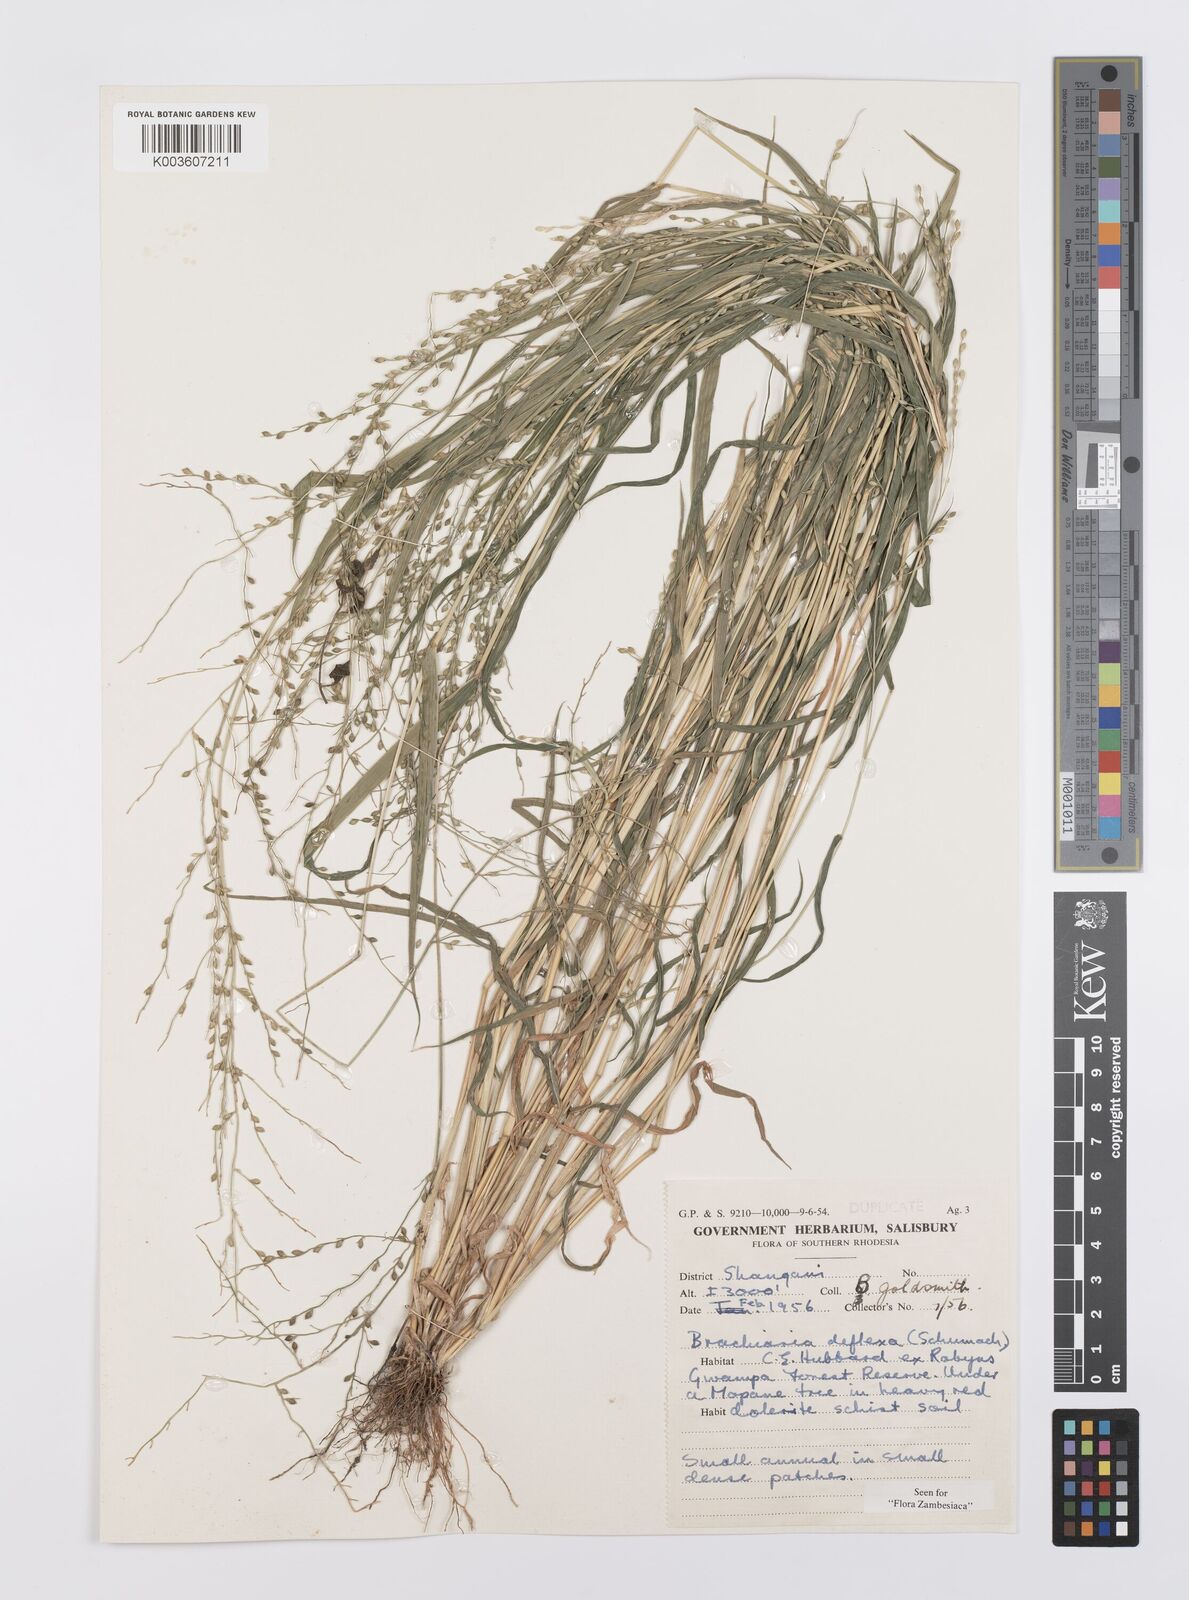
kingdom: Plantae
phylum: Tracheophyta
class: Liliopsida
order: Poales
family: Poaceae
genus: Urochloa
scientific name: Urochloa deflexa
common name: Guinea millet
